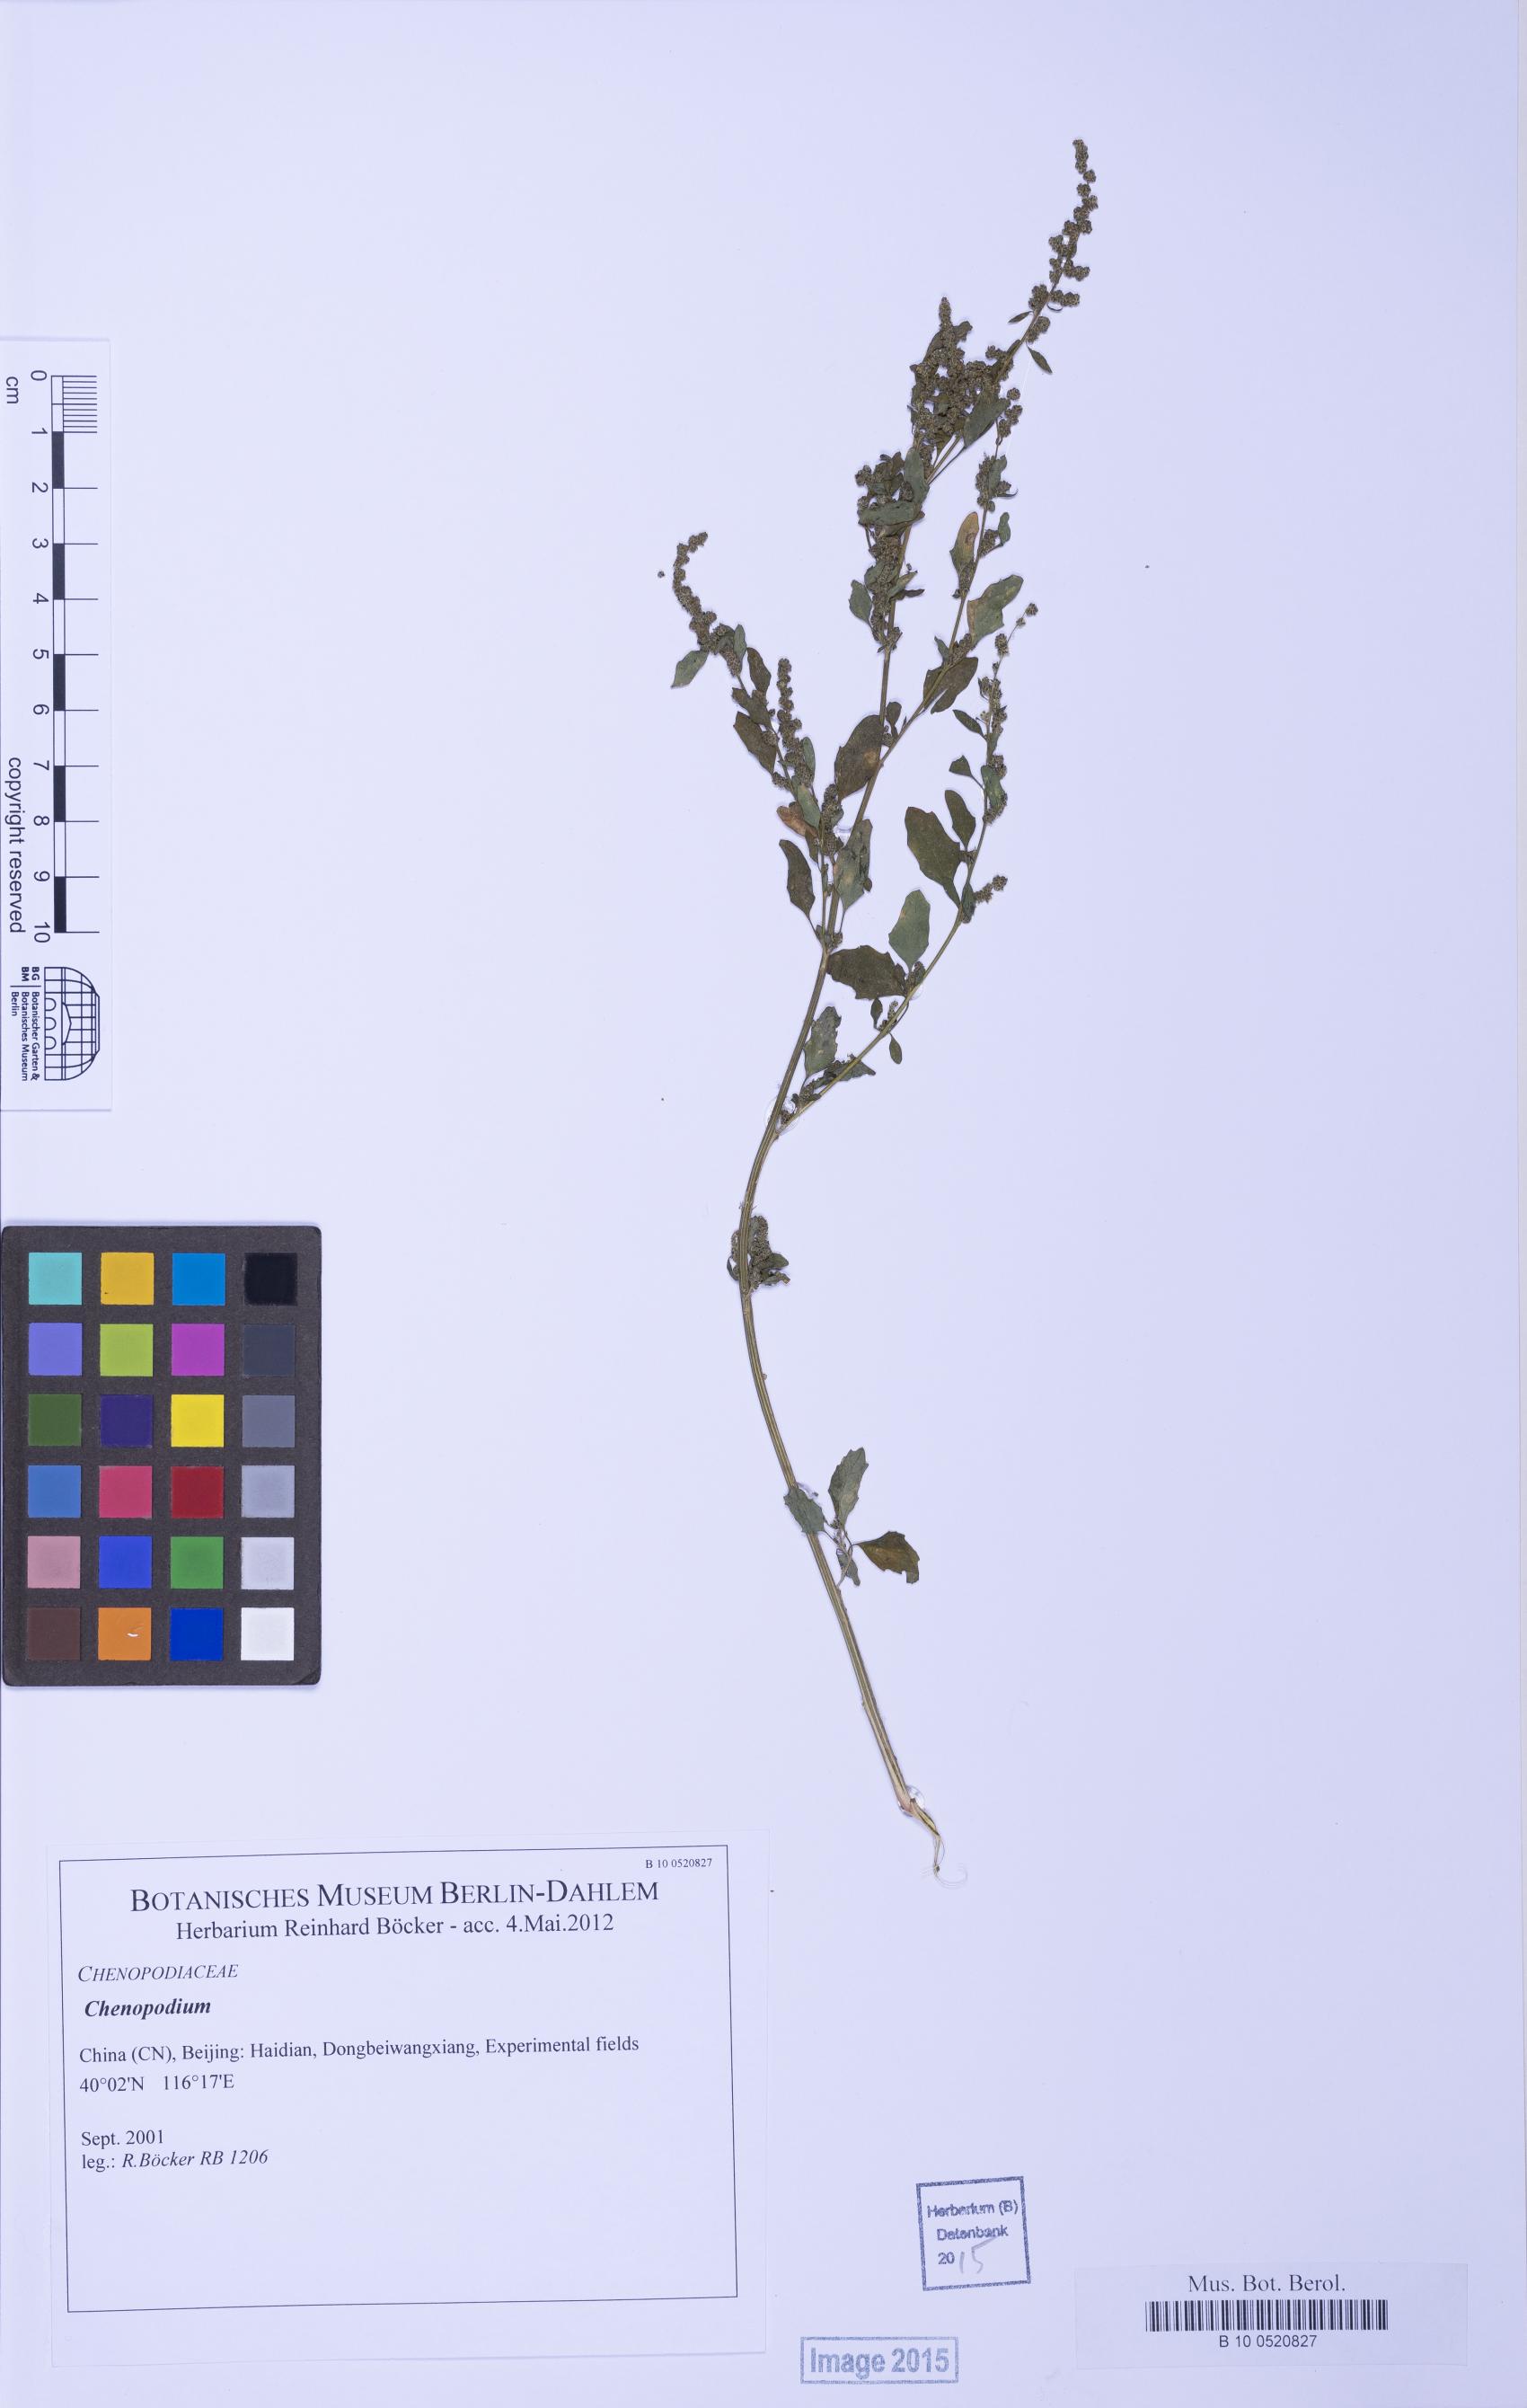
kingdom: Plantae
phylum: Tracheophyta
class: Magnoliopsida
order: Caryophyllales
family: Amaranthaceae
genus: Chenopodium
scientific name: Chenopodium
